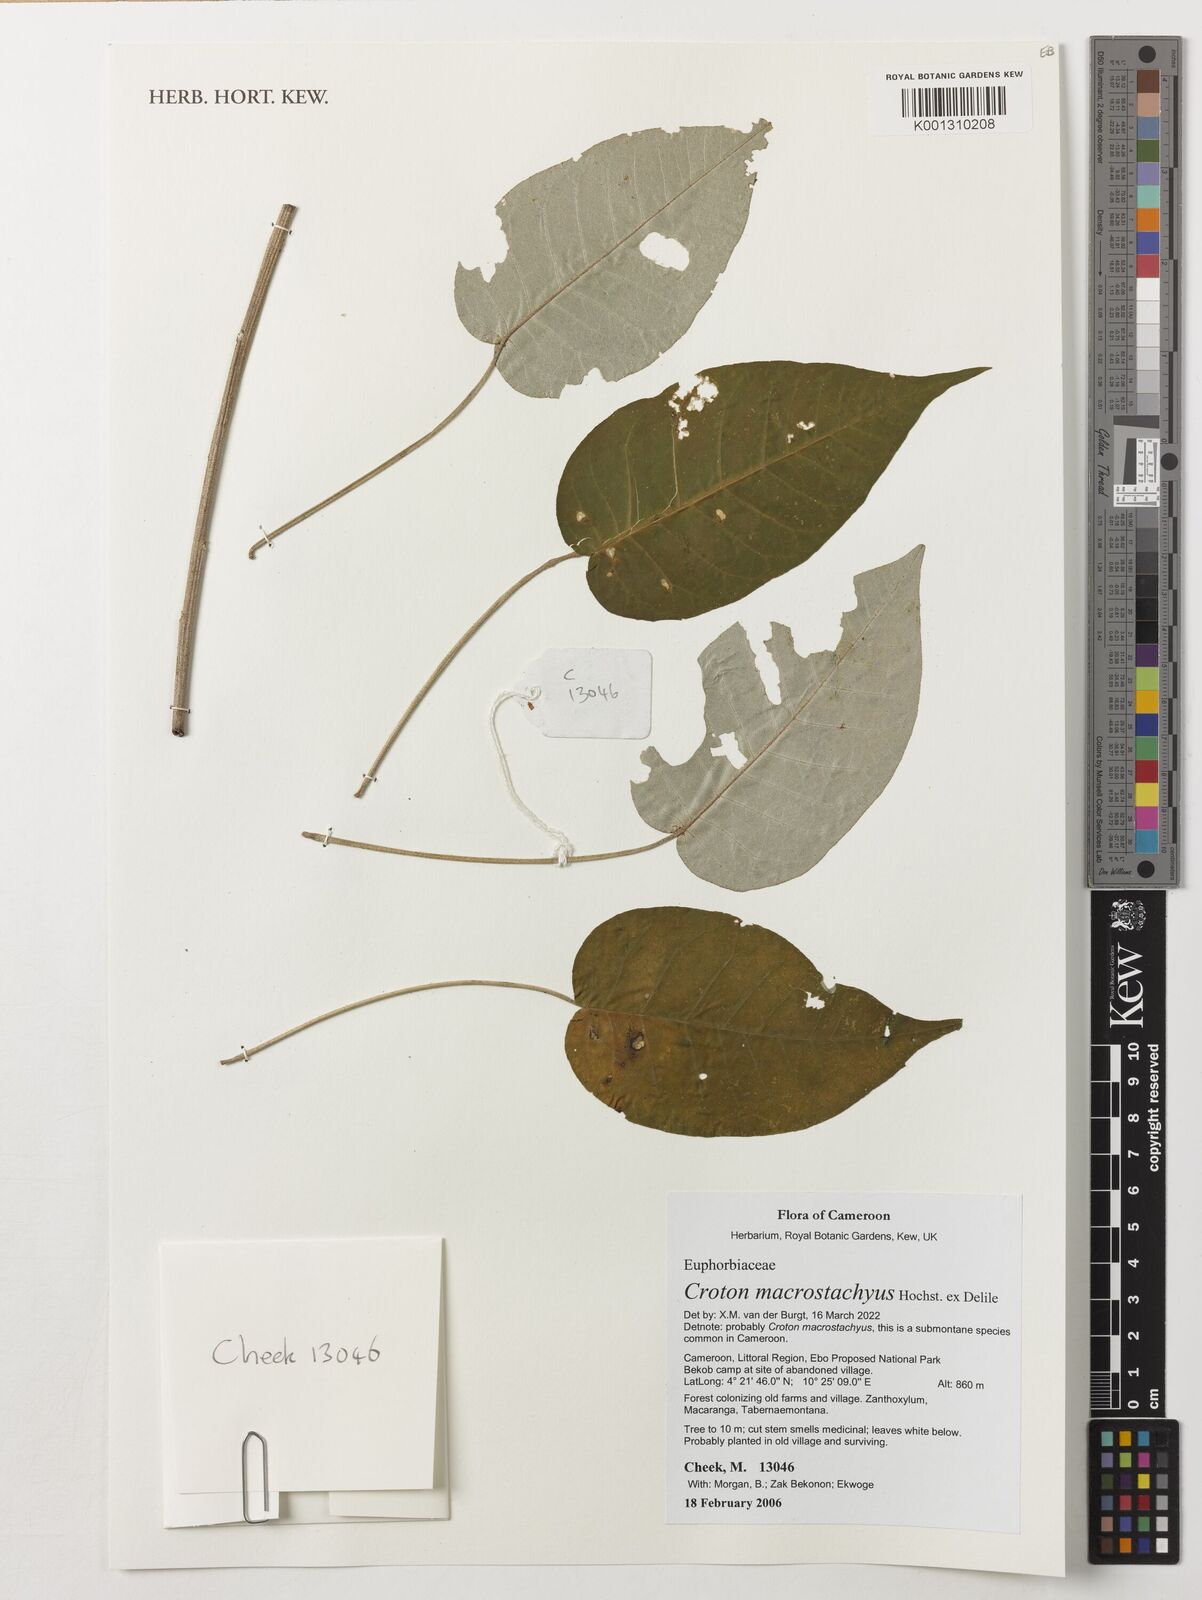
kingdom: Plantae
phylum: Tracheophyta
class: Magnoliopsida
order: Malpighiales
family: Euphorbiaceae
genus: Croton
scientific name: Croton macrostachyus
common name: Mutundu
